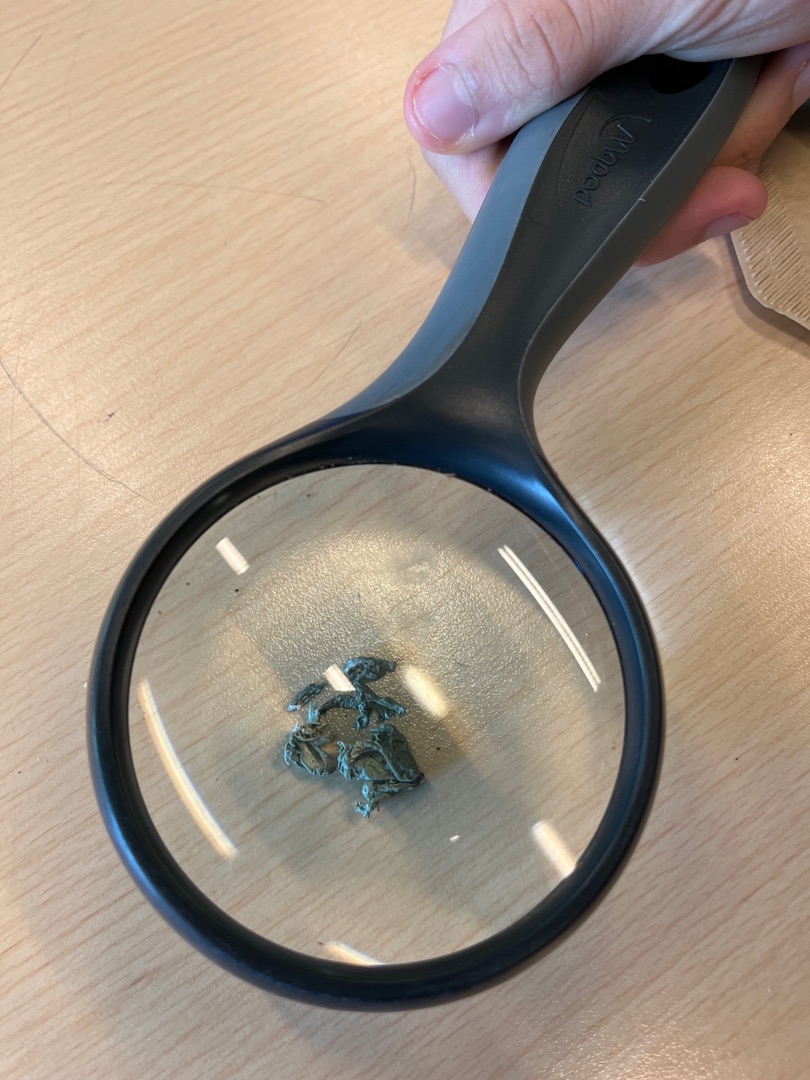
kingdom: Fungi
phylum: Ascomycota
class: Lecanoromycetes
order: Lecanorales
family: Ramalinaceae
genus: Ramalina
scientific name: Ramalina
